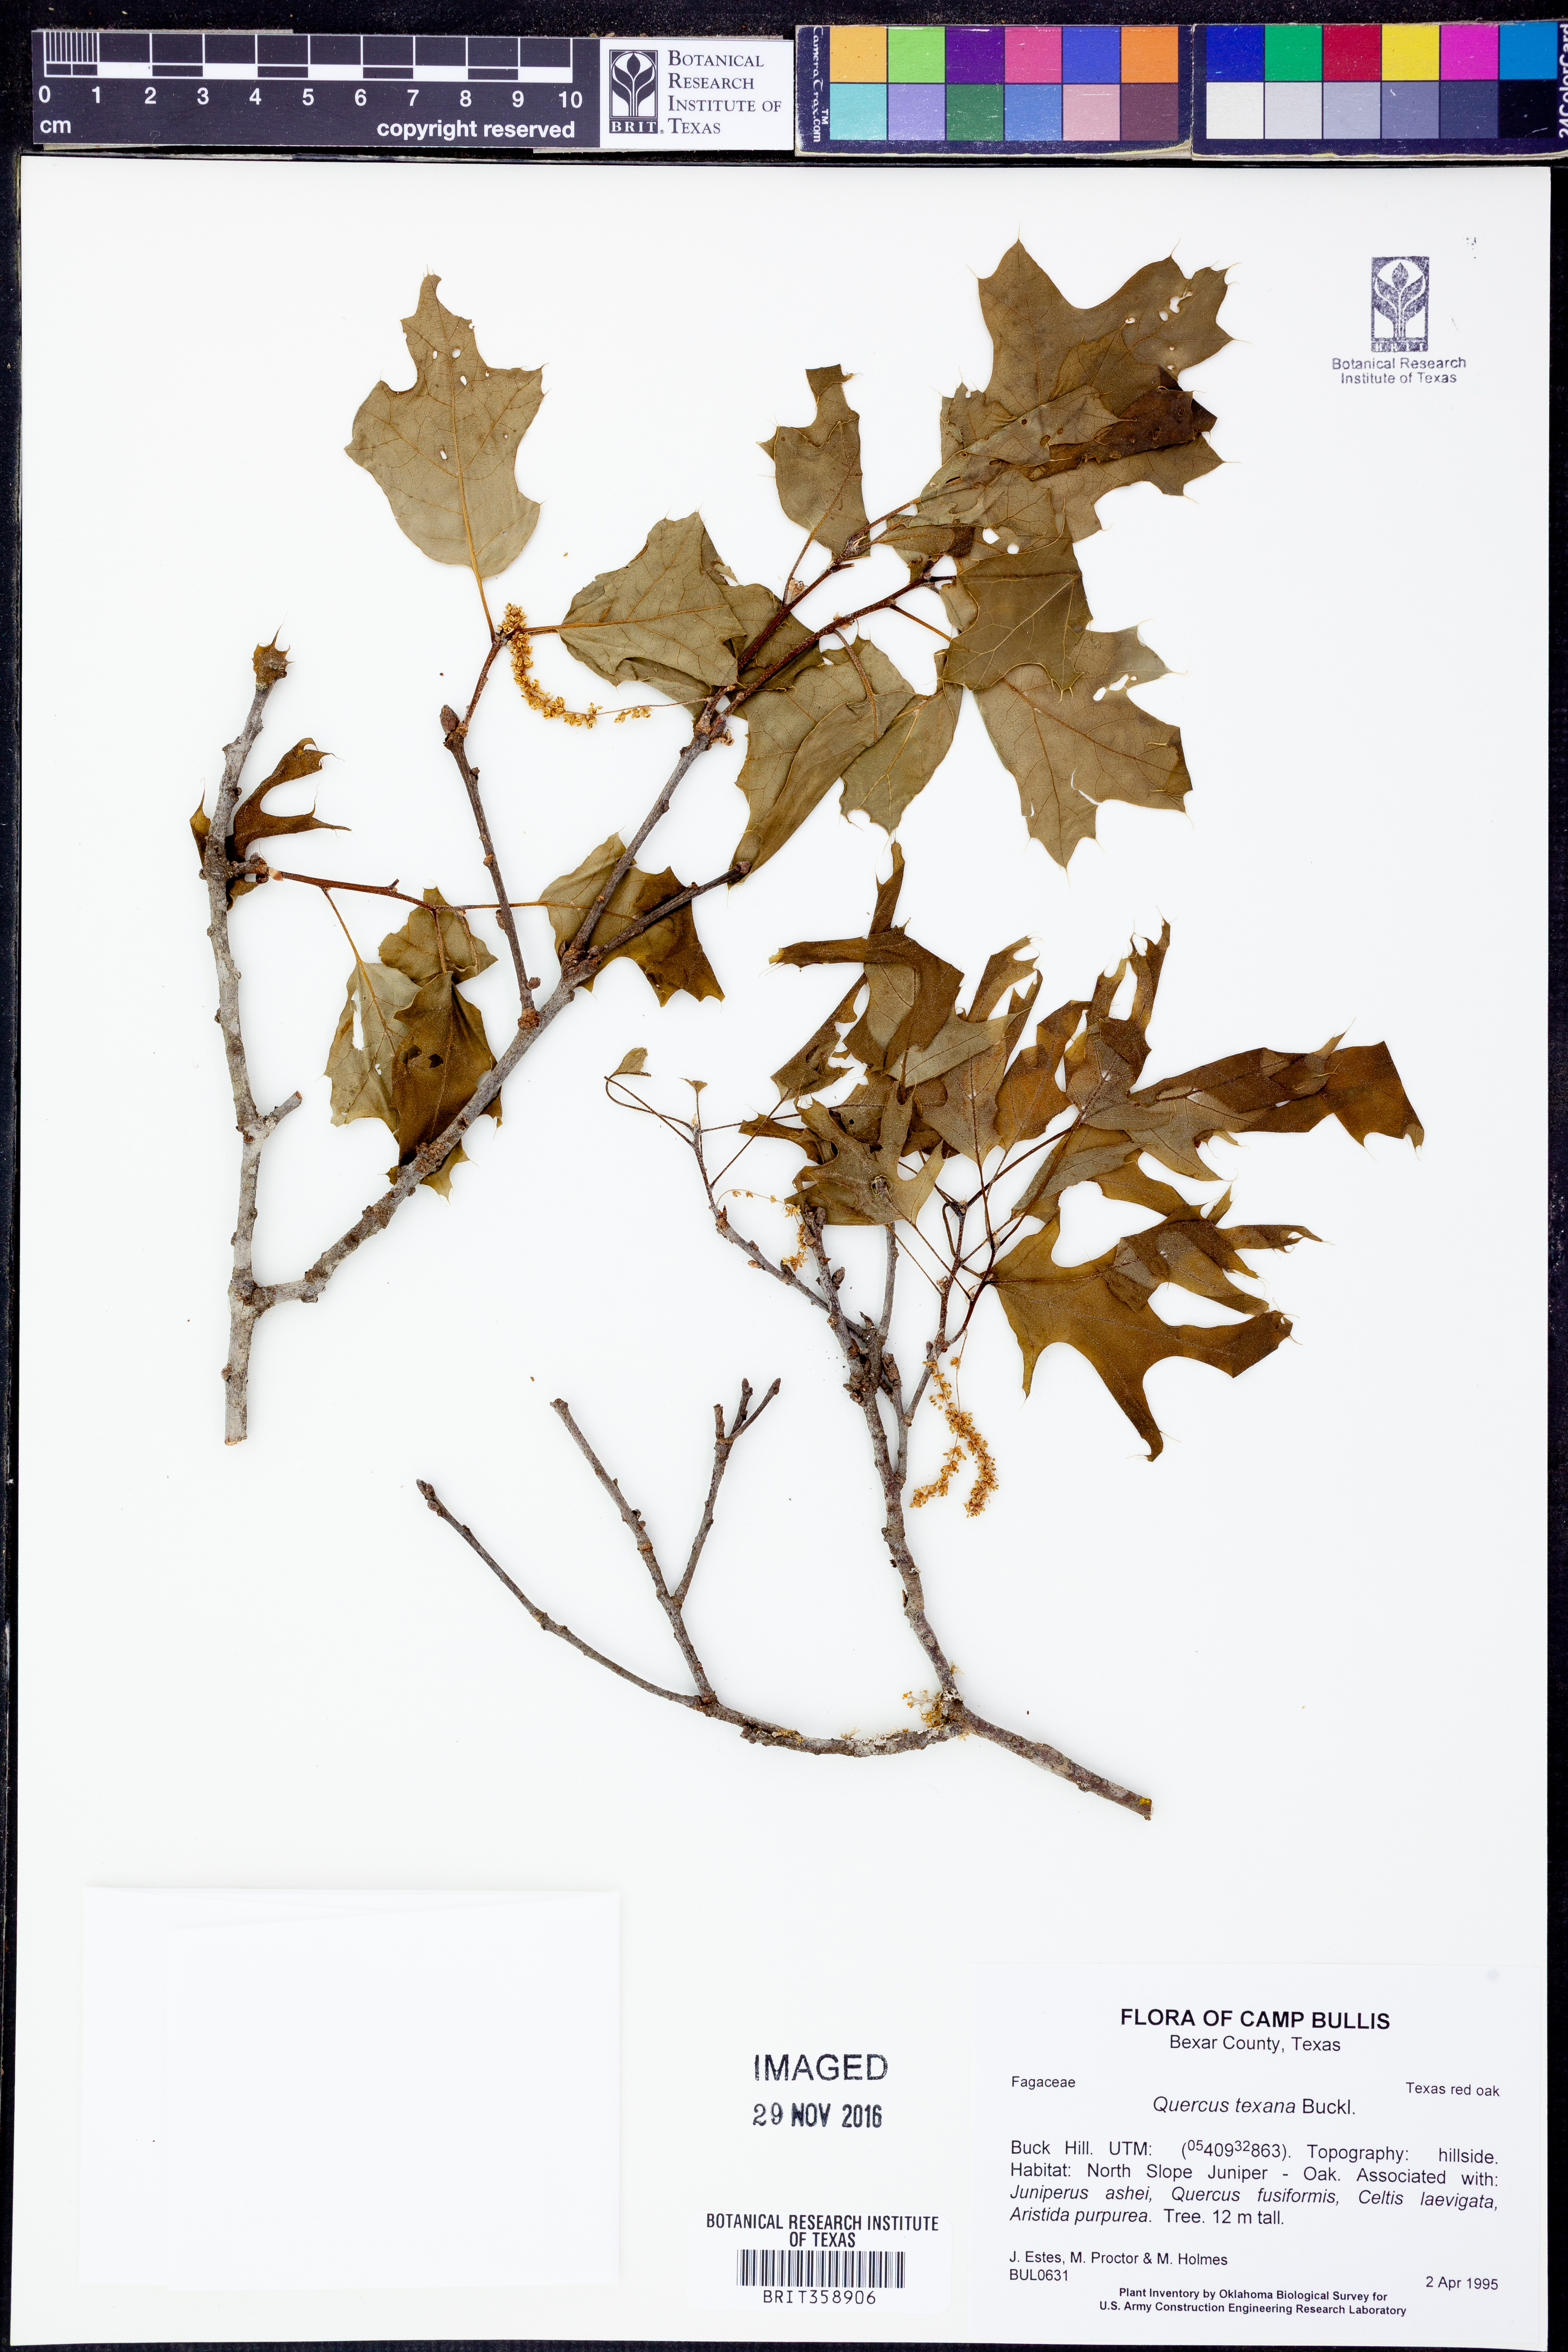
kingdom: Plantae
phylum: Tracheophyta
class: Magnoliopsida
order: Fagales
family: Fagaceae
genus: Quercus
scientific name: Quercus texana
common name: Nuttall oak
